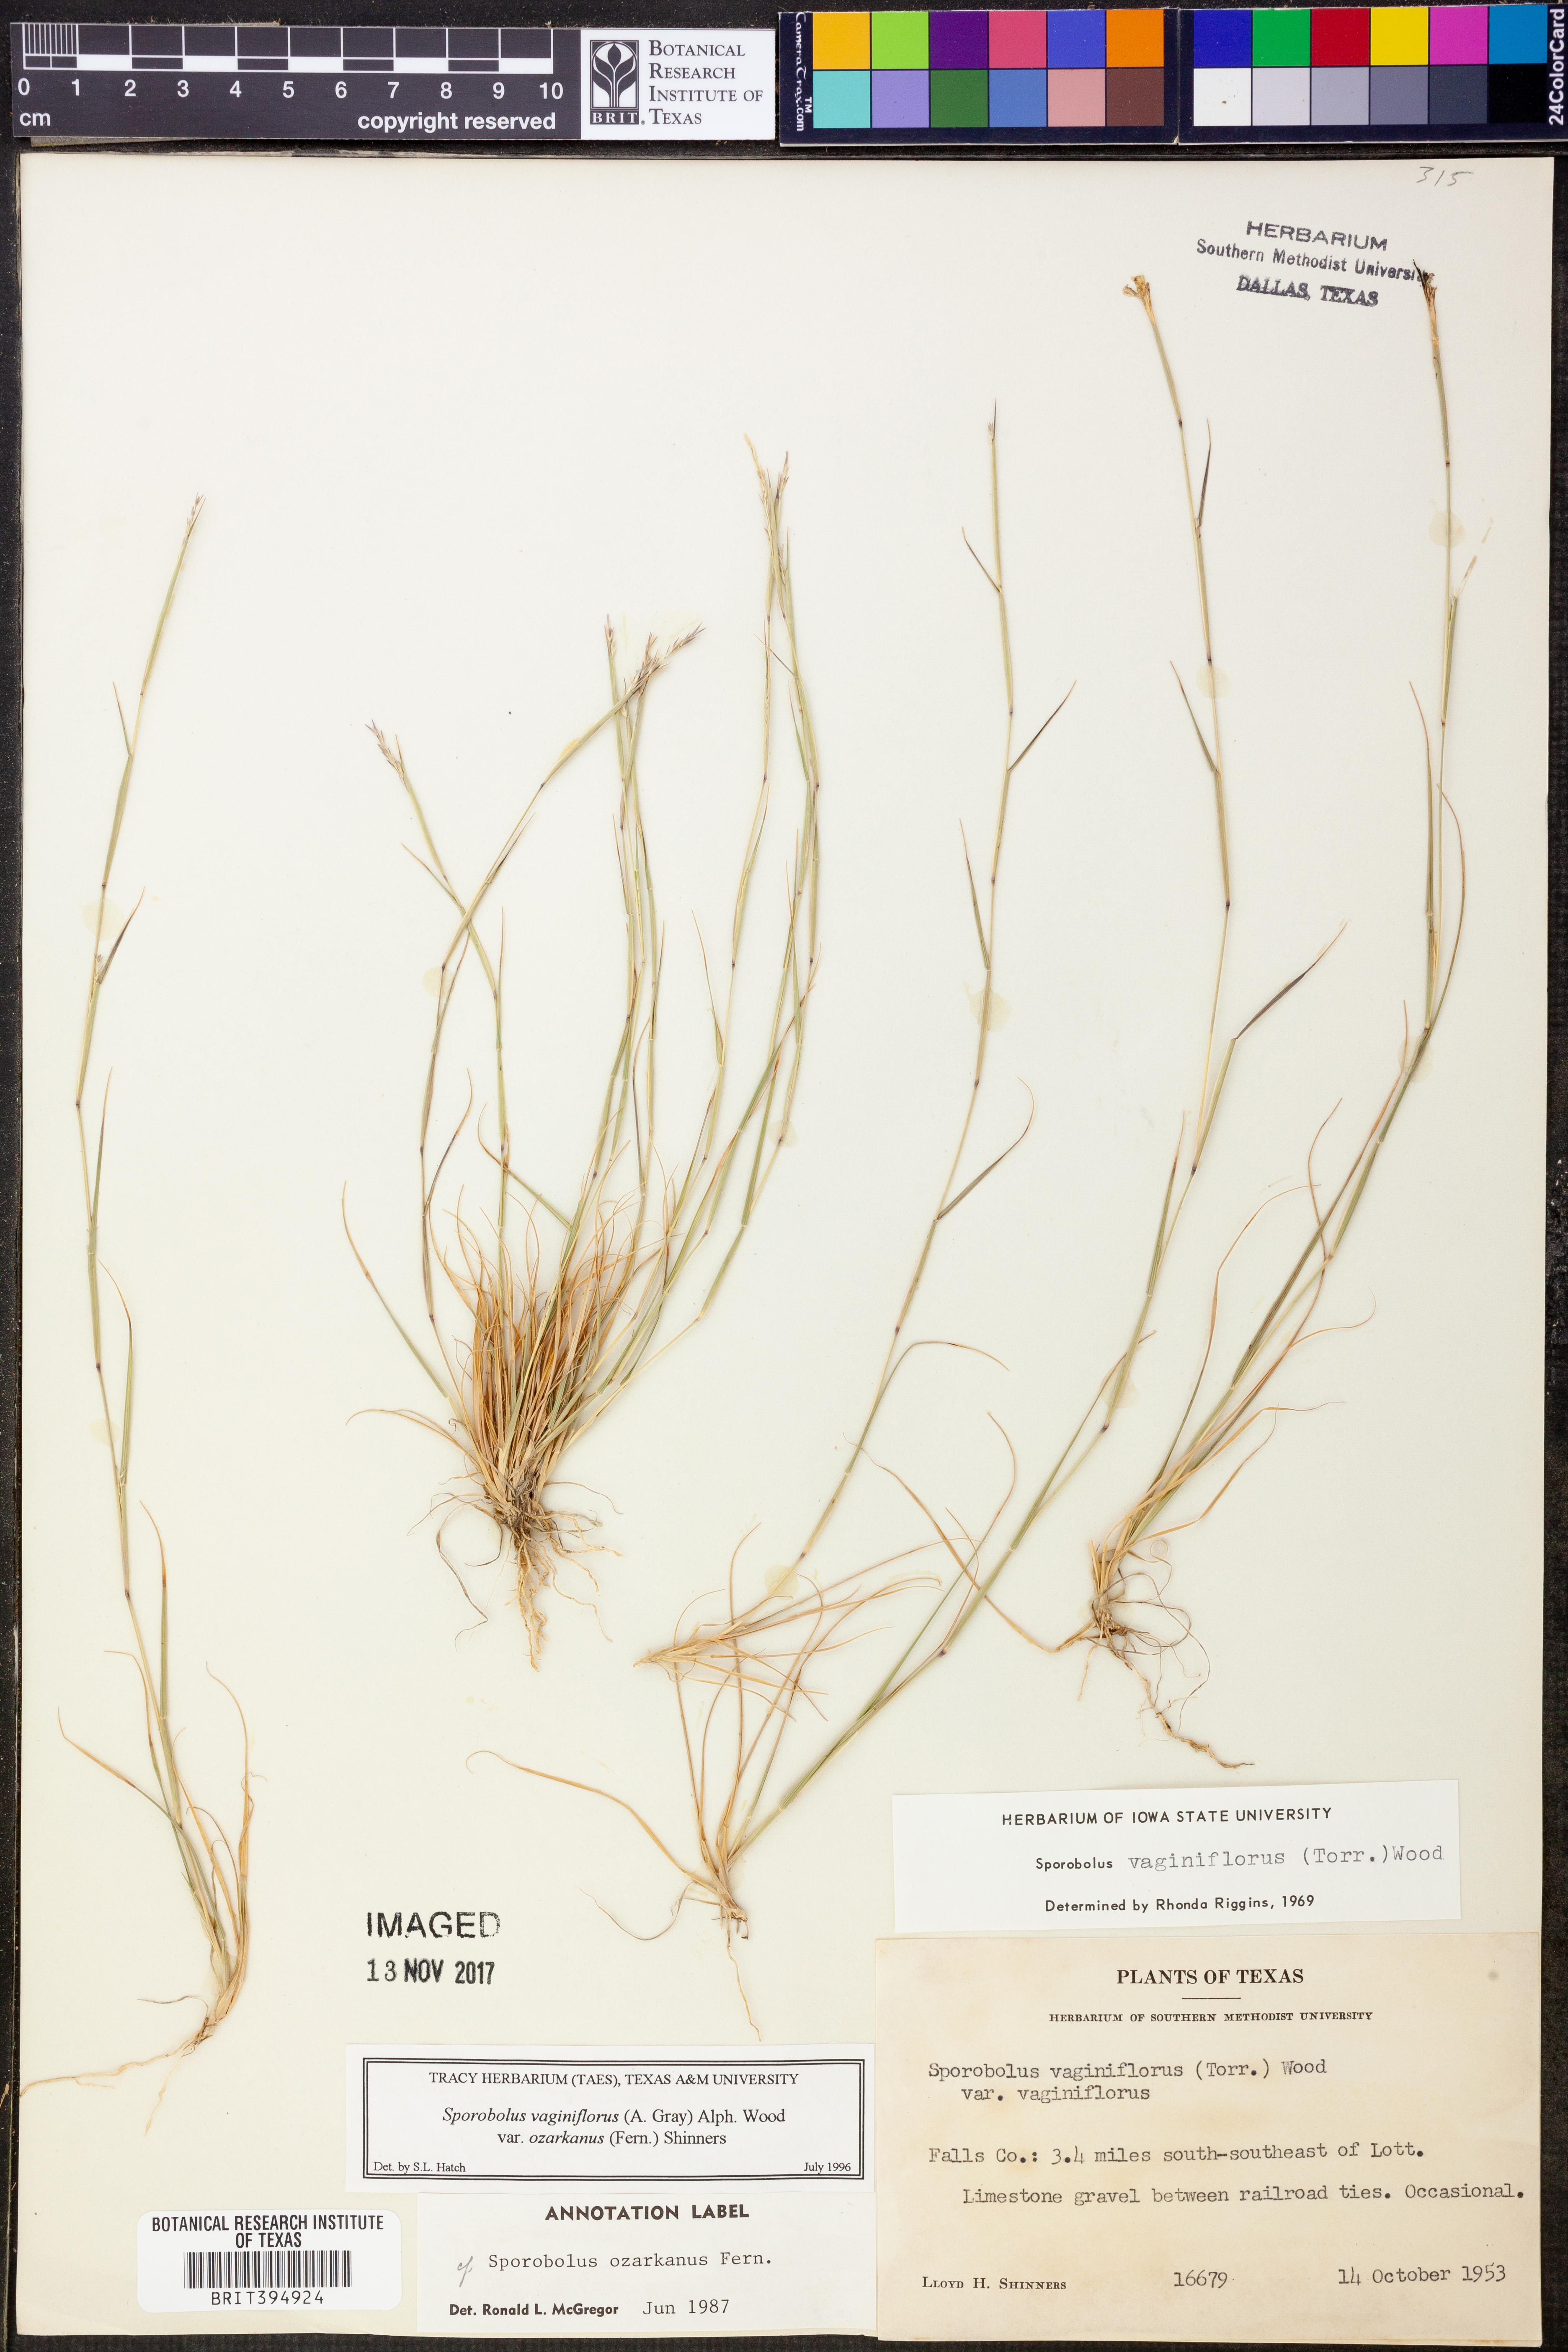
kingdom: Plantae
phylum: Tracheophyta
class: Liliopsida
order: Poales
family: Poaceae
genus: Sporobolus
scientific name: Sporobolus neglectus
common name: Annual dropseed
